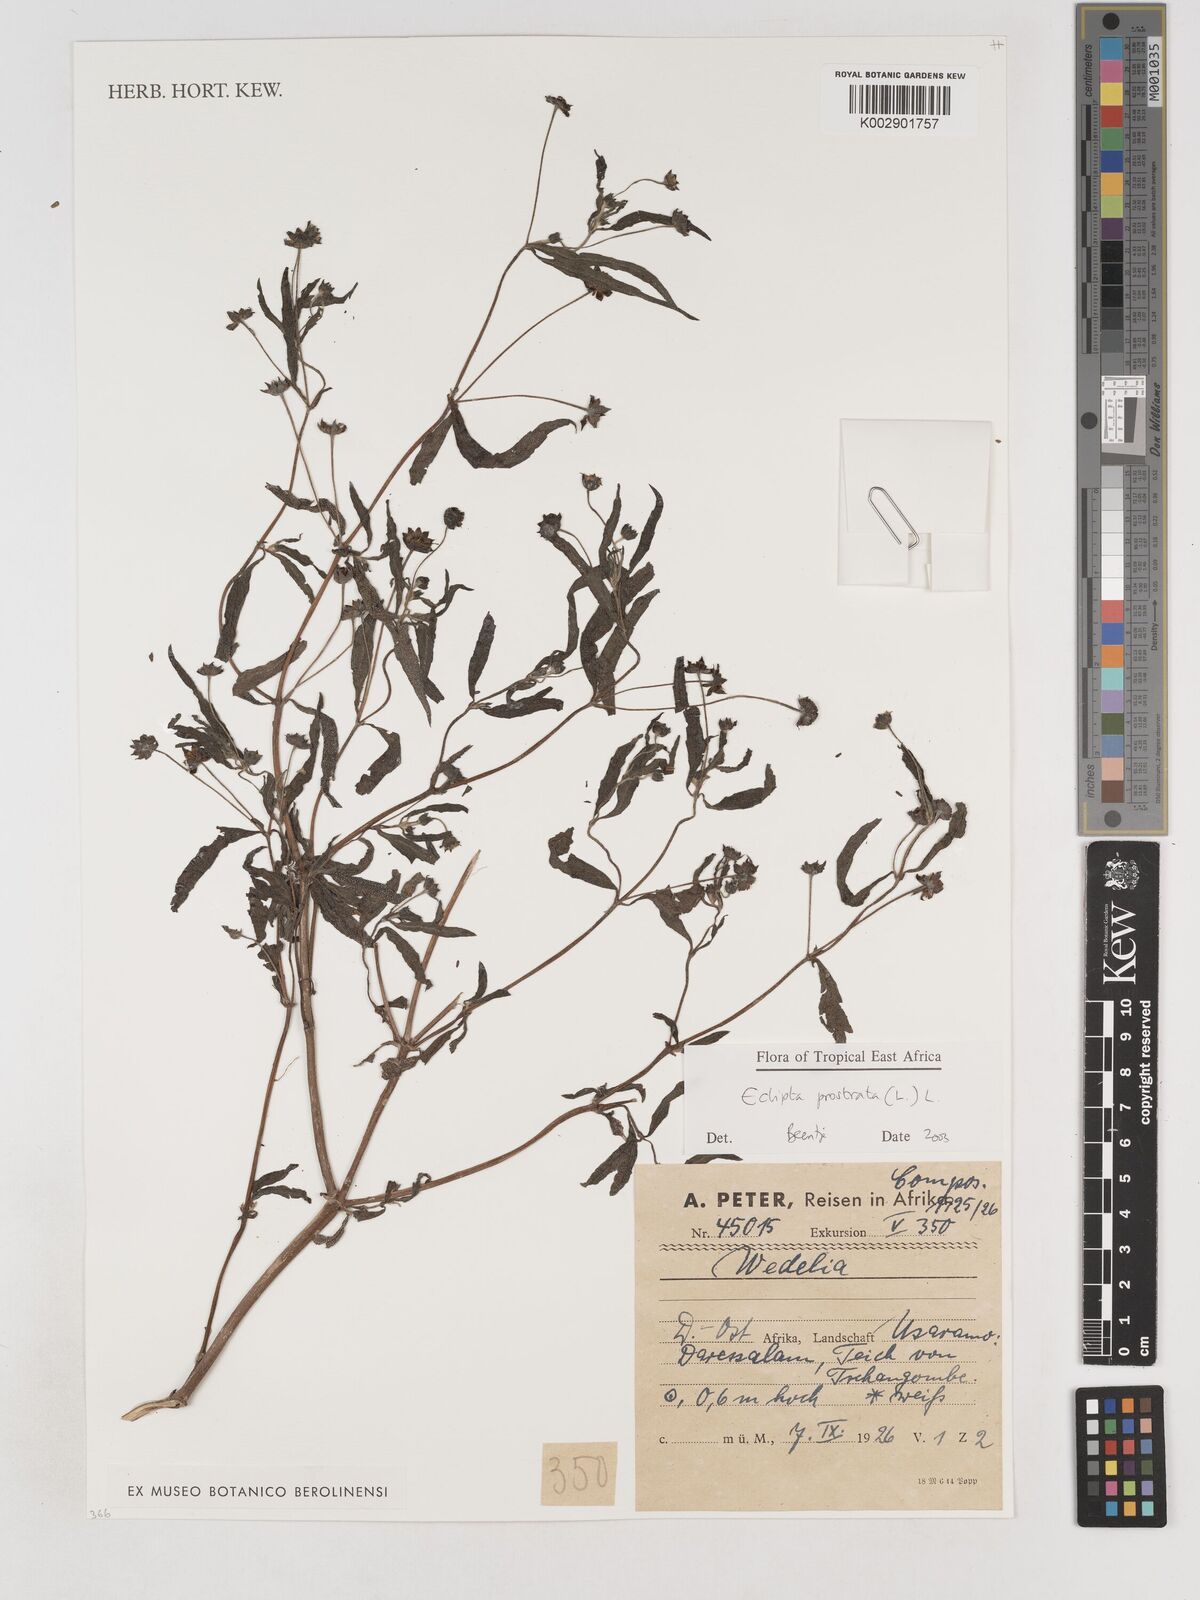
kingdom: Plantae
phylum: Tracheophyta
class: Magnoliopsida
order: Asterales
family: Asteraceae
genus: Eclipta
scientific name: Eclipta alba
